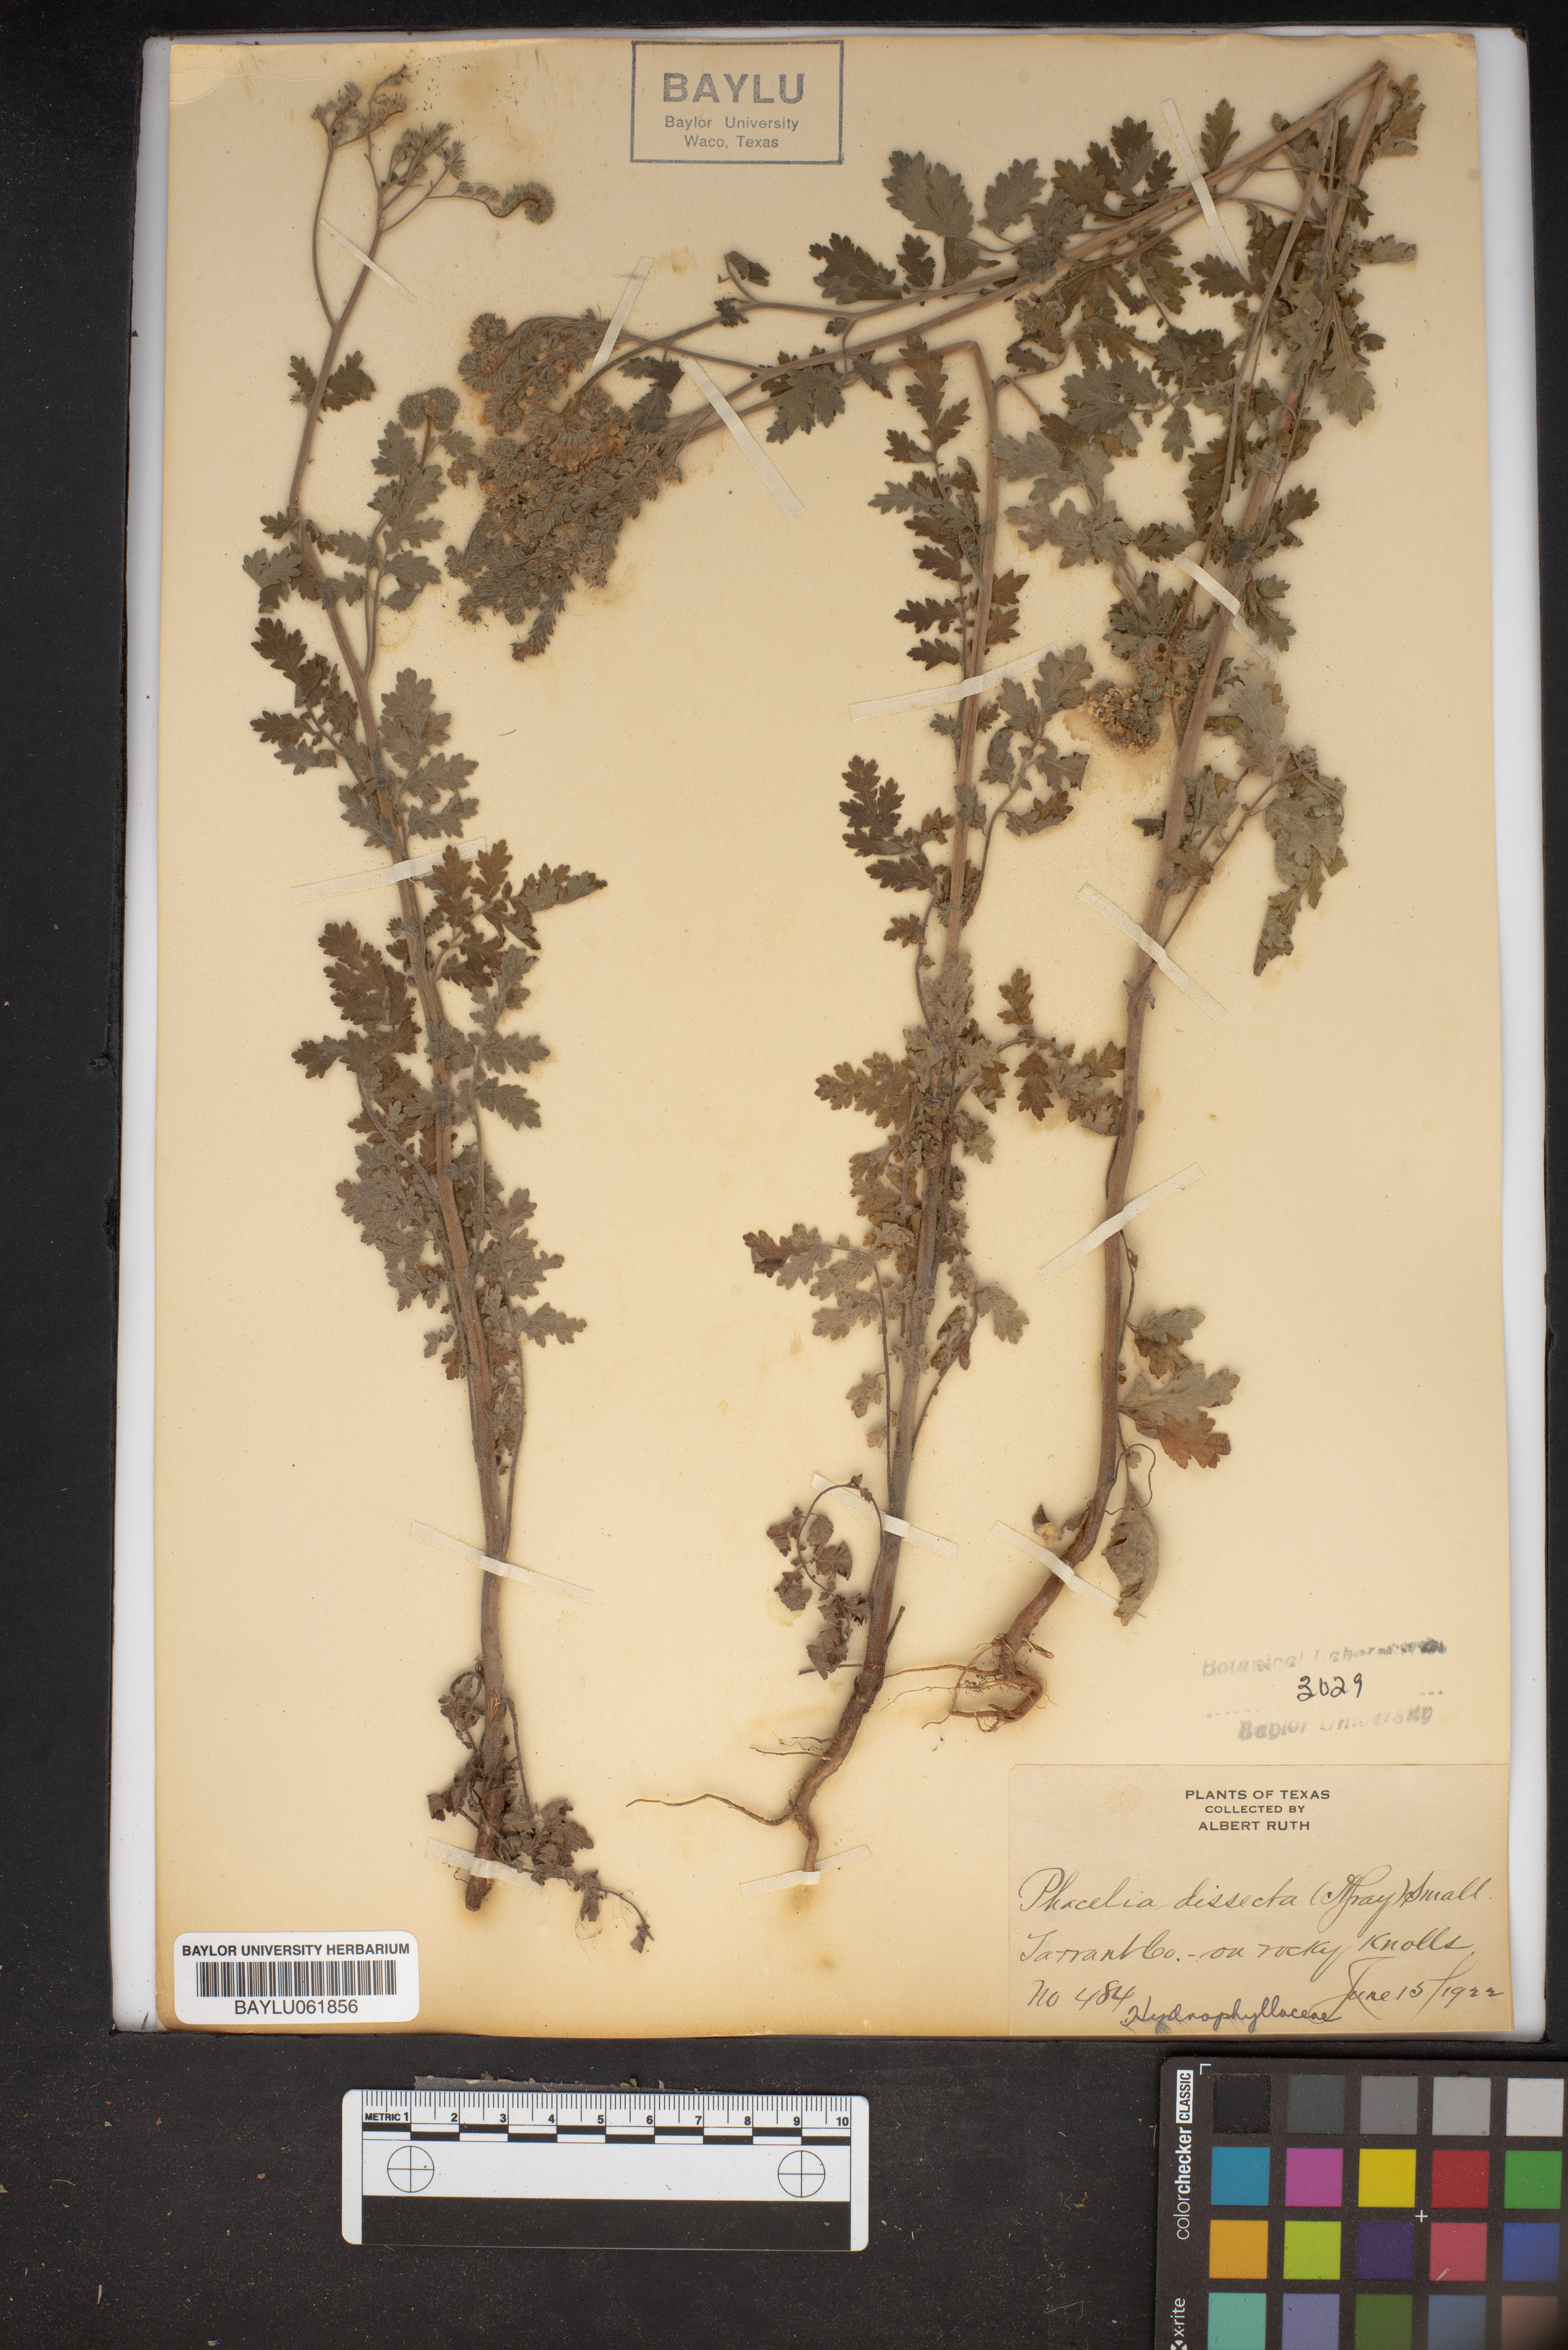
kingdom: Plantae
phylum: Tracheophyta
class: Magnoliopsida
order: Boraginales
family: Hydrophyllaceae
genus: Phacelia
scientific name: Phacelia congesta
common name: Blue curls
